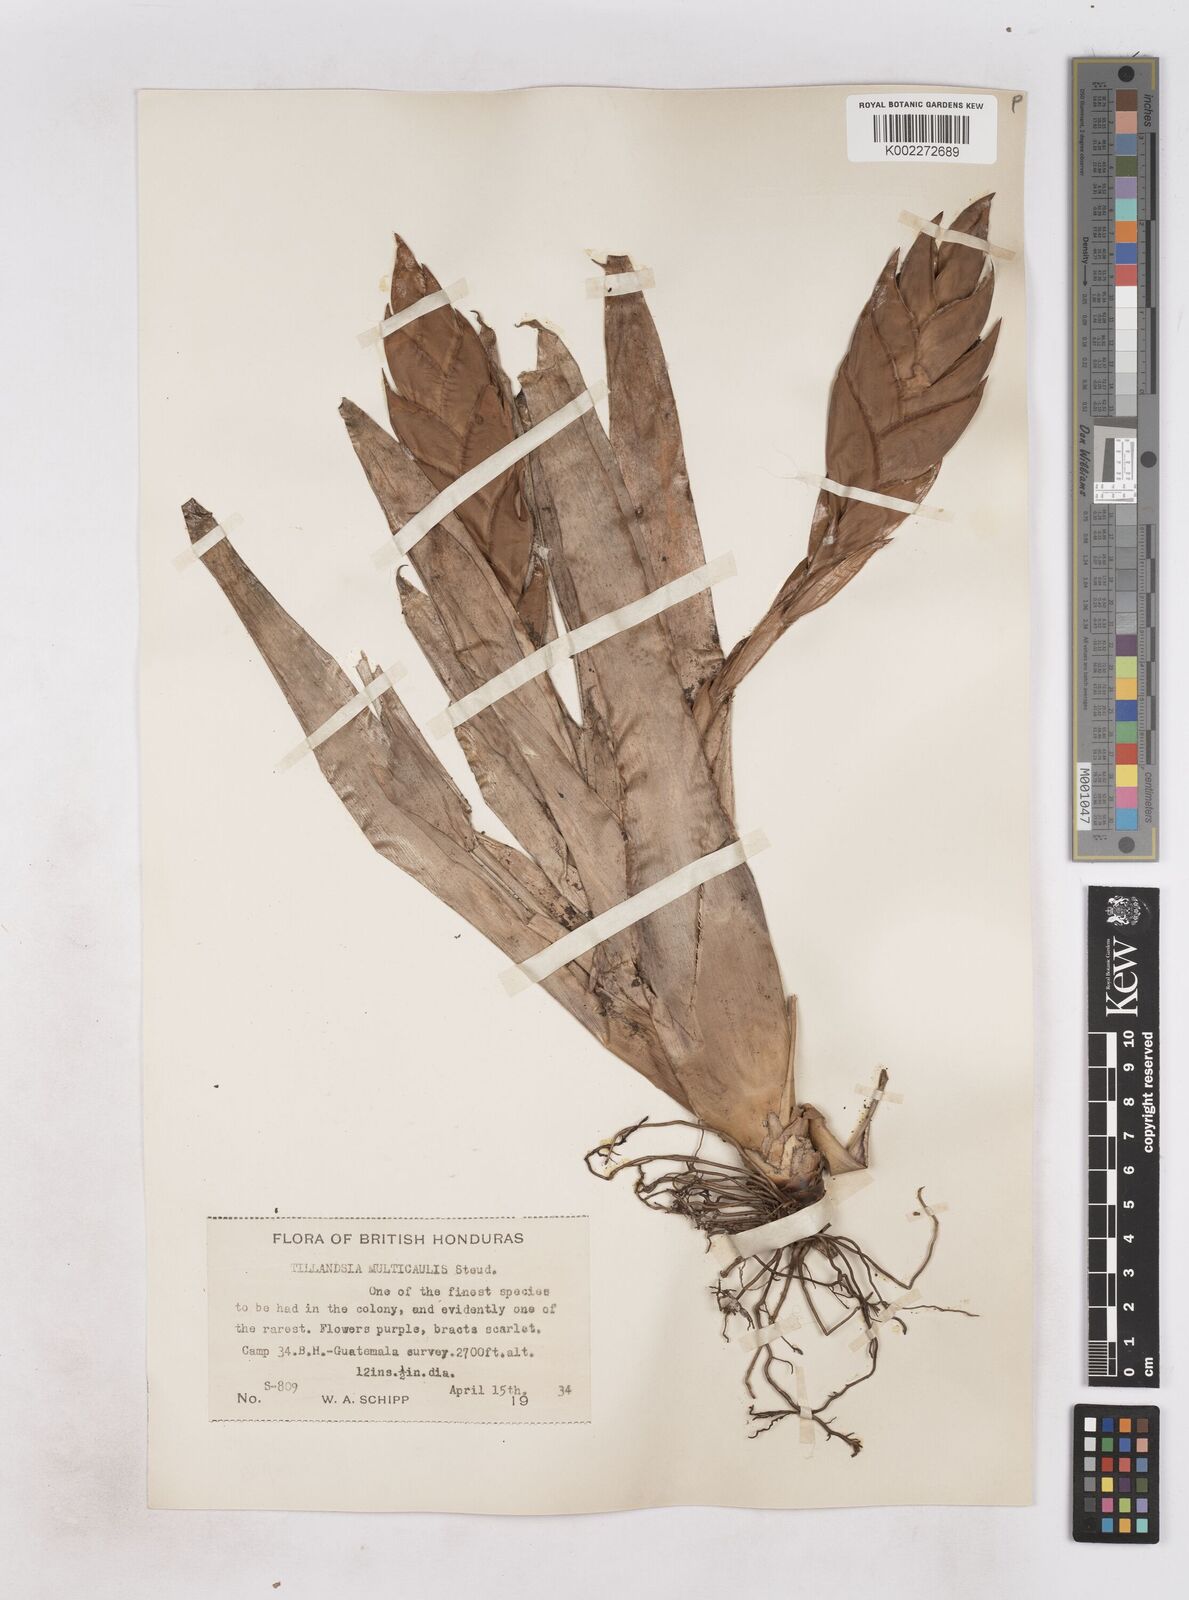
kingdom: Plantae
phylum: Tracheophyta
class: Liliopsida
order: Poales
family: Bromeliaceae
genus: Tillandsia
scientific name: Tillandsia multicaulis
